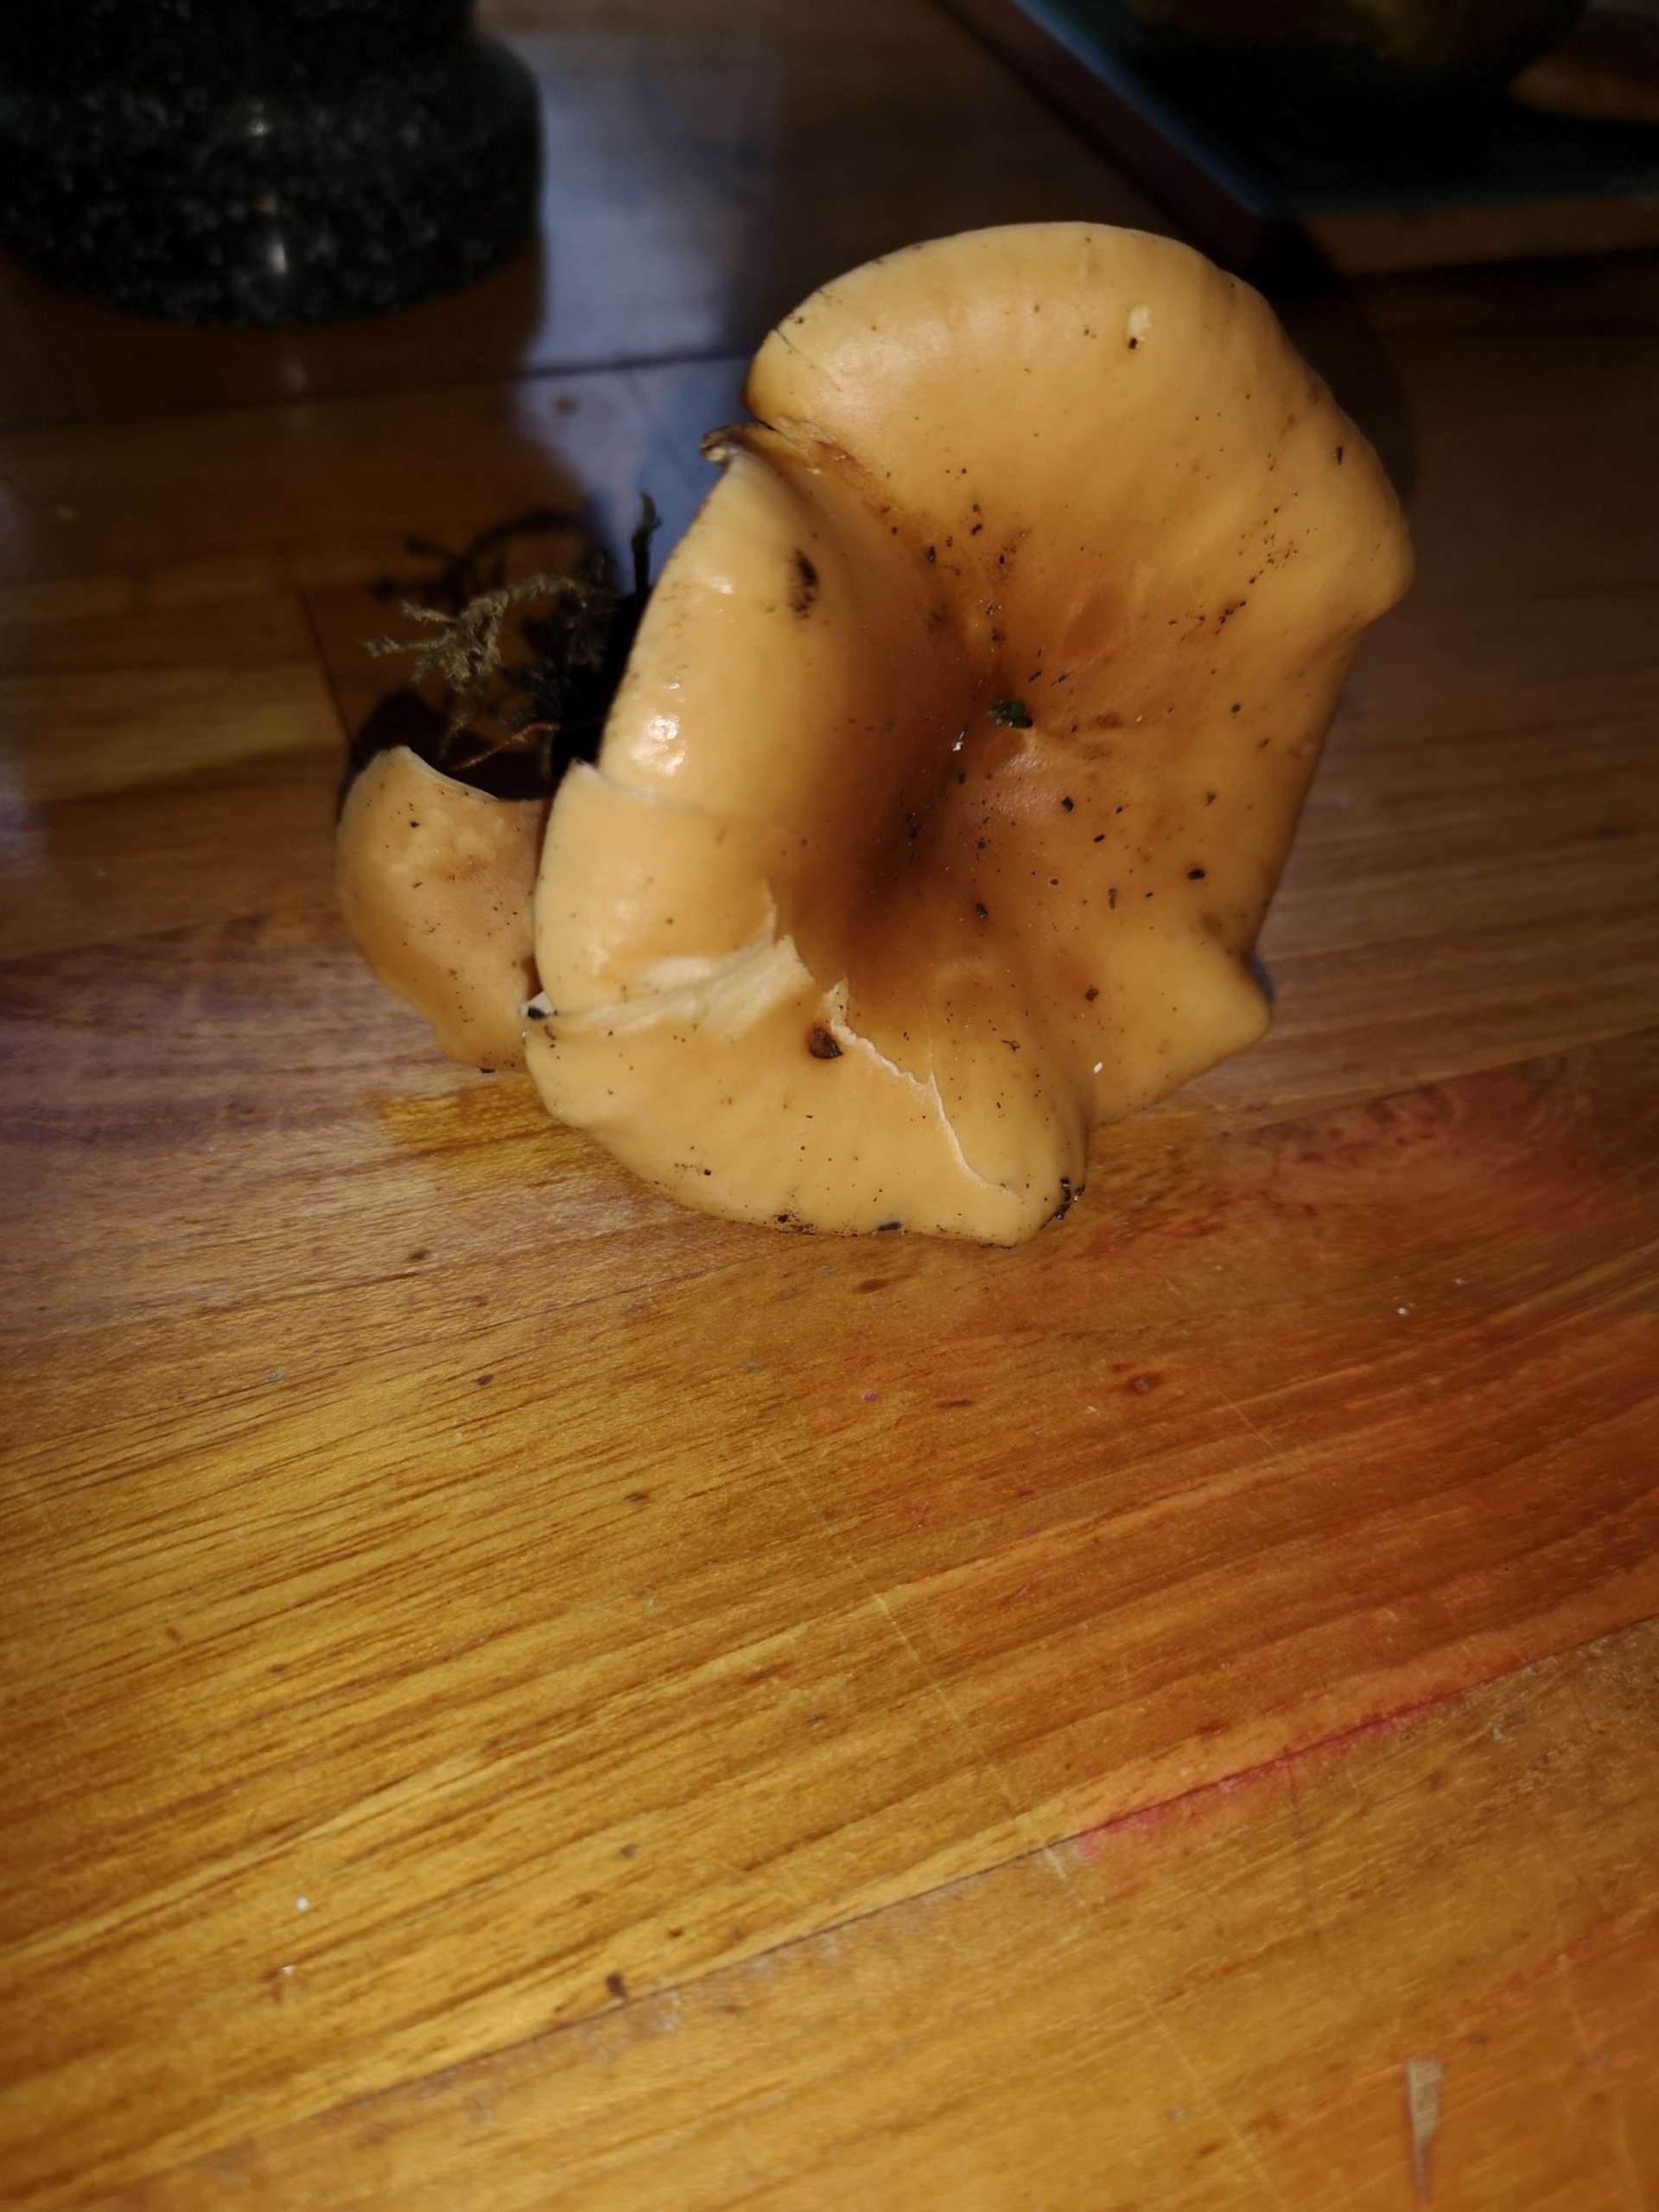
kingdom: Fungi
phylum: Basidiomycota
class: Agaricomycetes
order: Agaricales
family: Tricholomataceae
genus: Paralepista
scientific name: Paralepista flaccida
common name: Brunstænket hekseringshat
